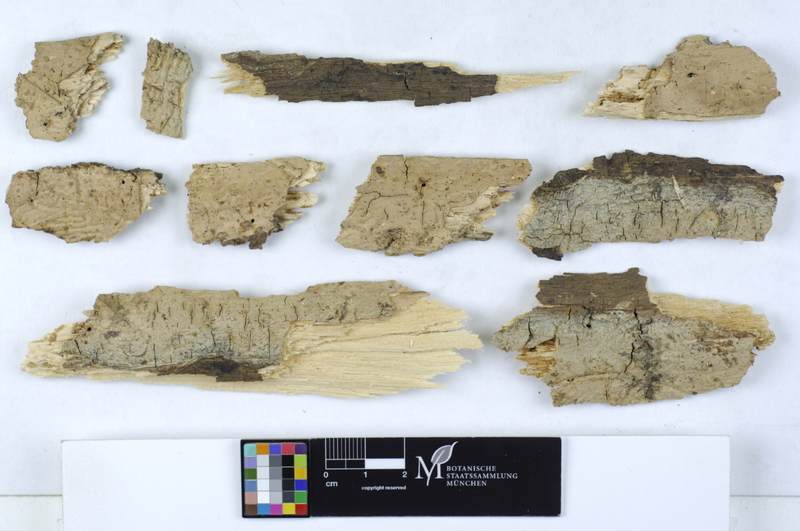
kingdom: Plantae
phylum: Tracheophyta
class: Magnoliopsida
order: Lamiales
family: Oleaceae
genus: Fraxinus
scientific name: Fraxinus
